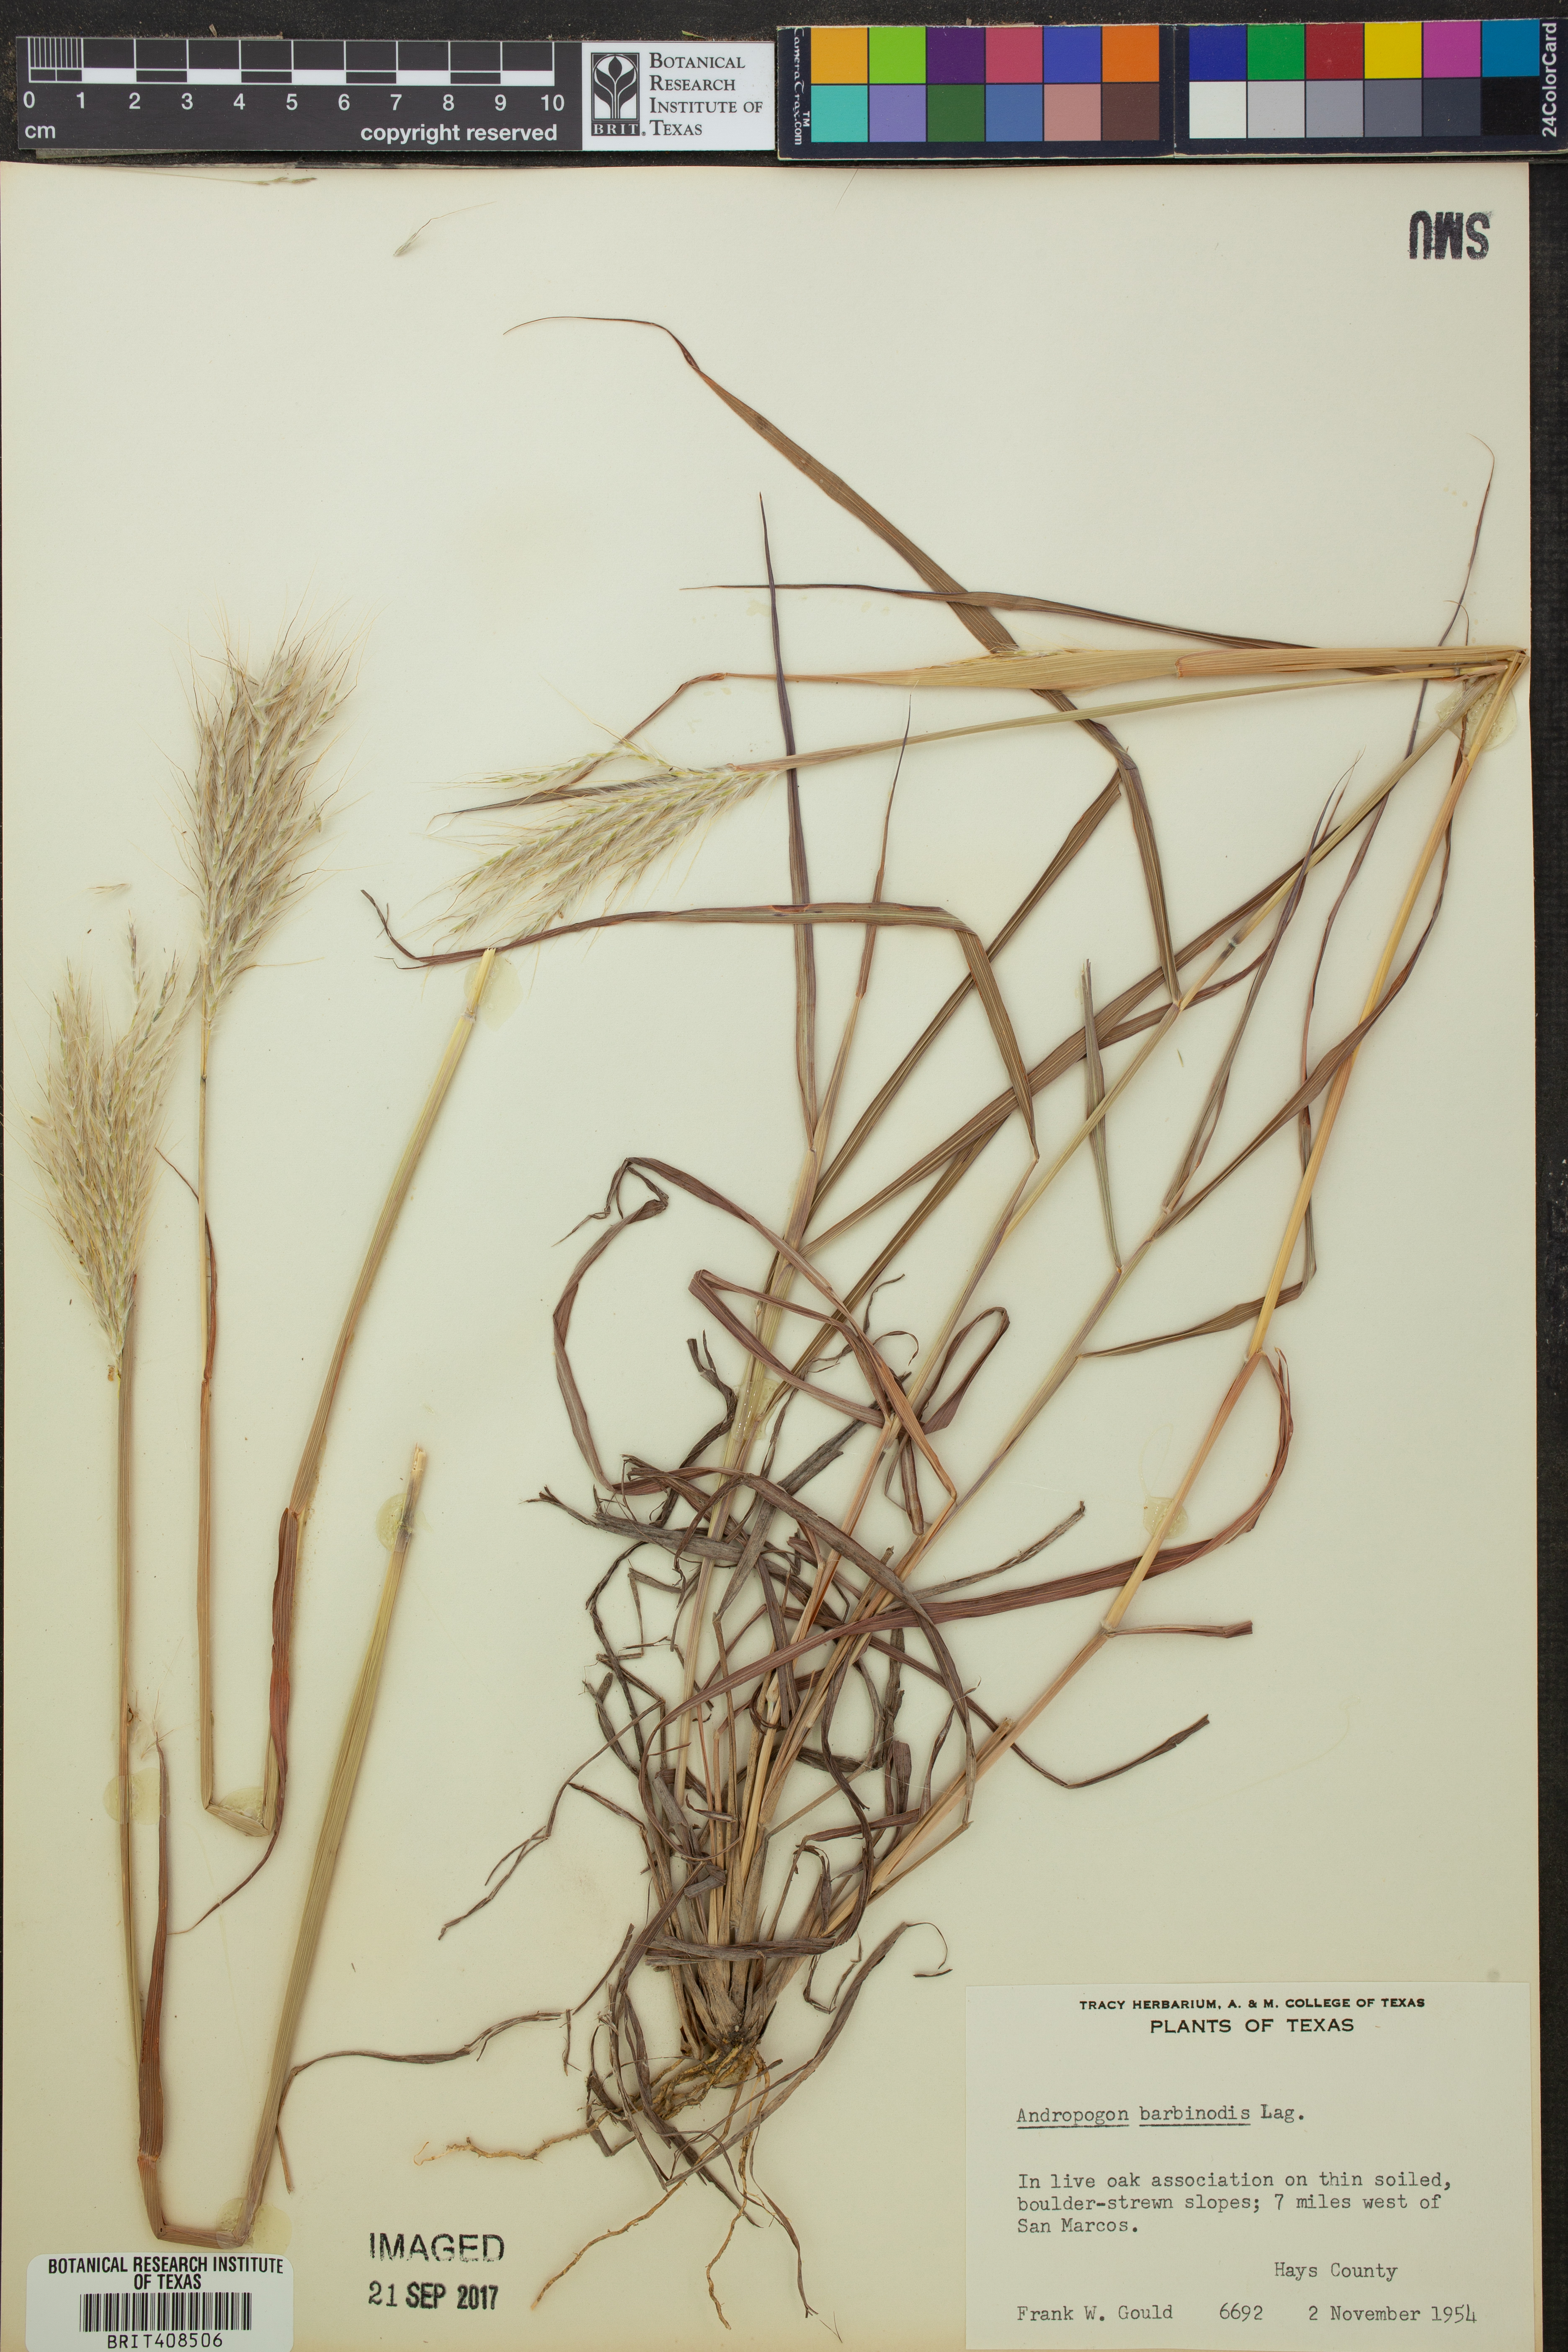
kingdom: Plantae
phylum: Tracheophyta
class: Liliopsida
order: Poales
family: Poaceae
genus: Bothriochloa
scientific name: Bothriochloa barbinodis
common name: Cane bluestem
